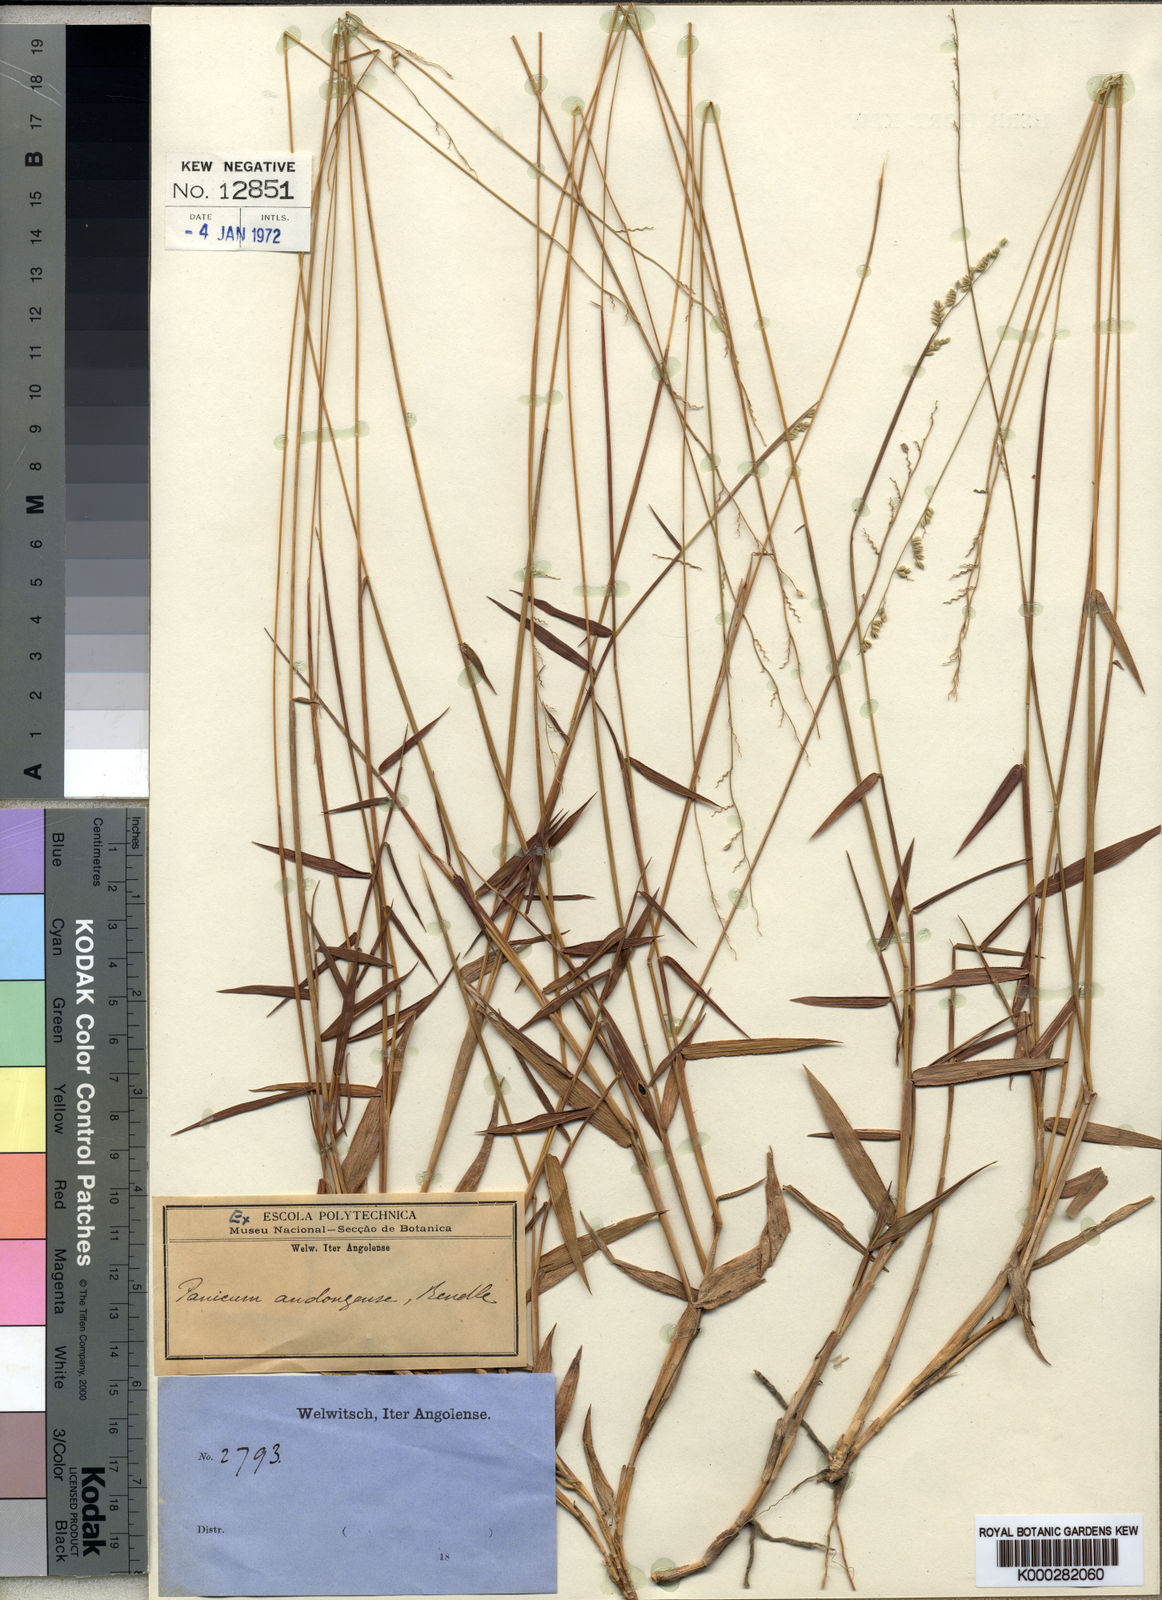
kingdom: Plantae
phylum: Tracheophyta
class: Liliopsida
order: Poales
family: Poaceae
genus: Urochloa
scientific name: Urochloa serrata
